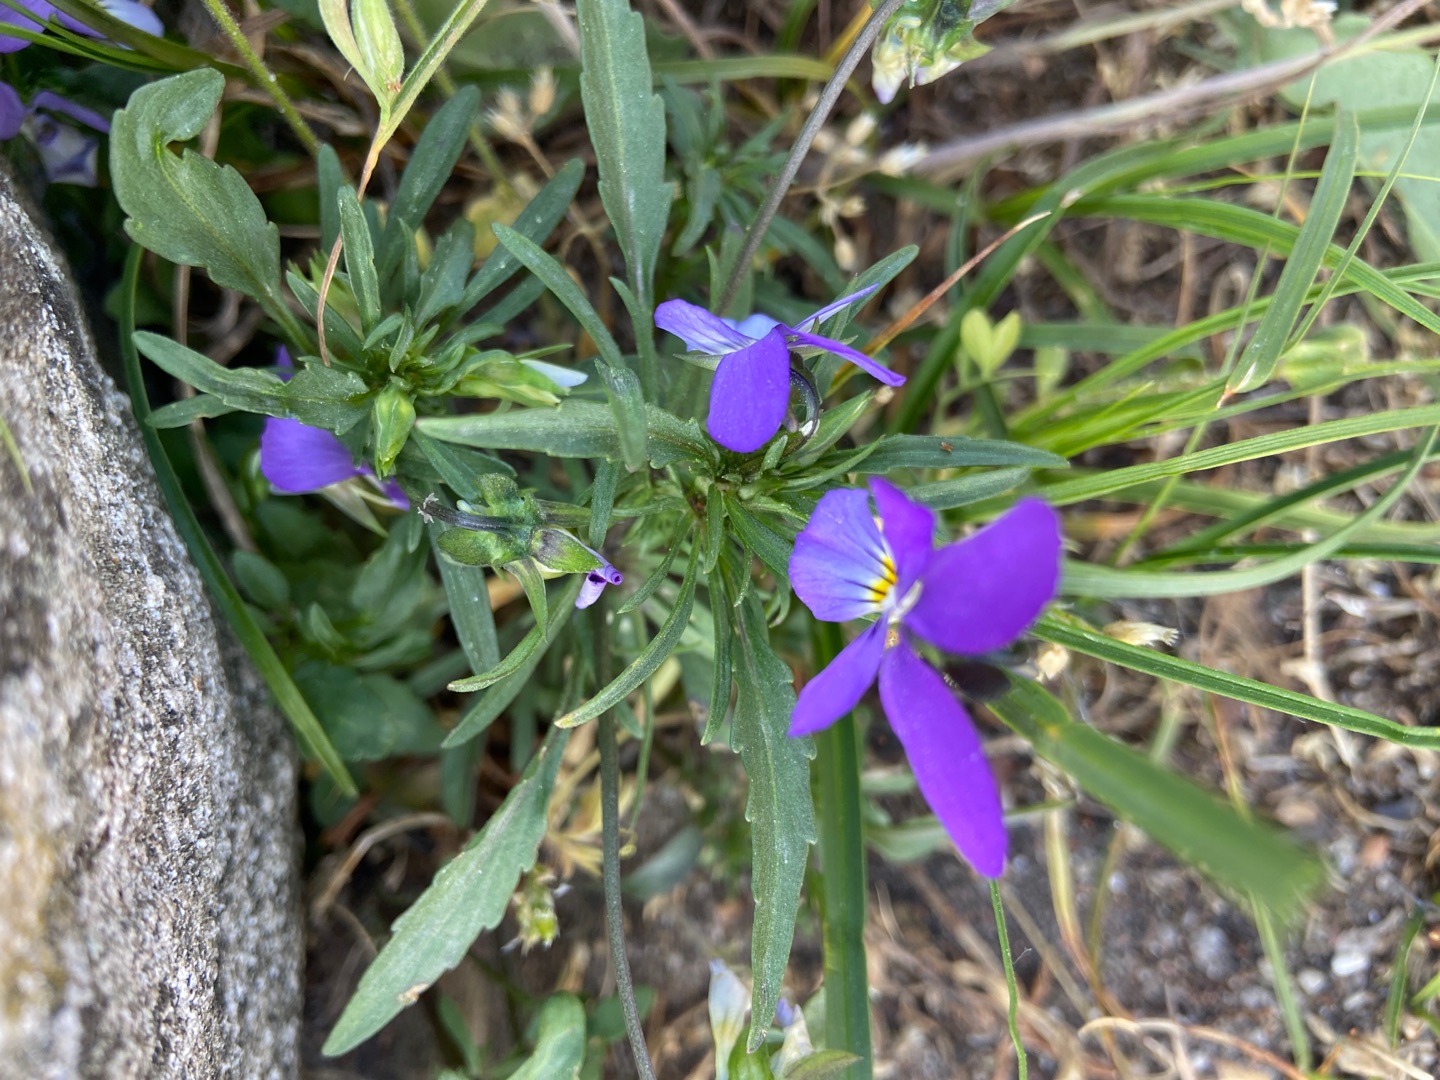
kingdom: Plantae
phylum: Tracheophyta
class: Magnoliopsida
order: Malpighiales
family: Violaceae
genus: Viola
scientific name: Viola tricolor
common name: Stedmoderblomst
